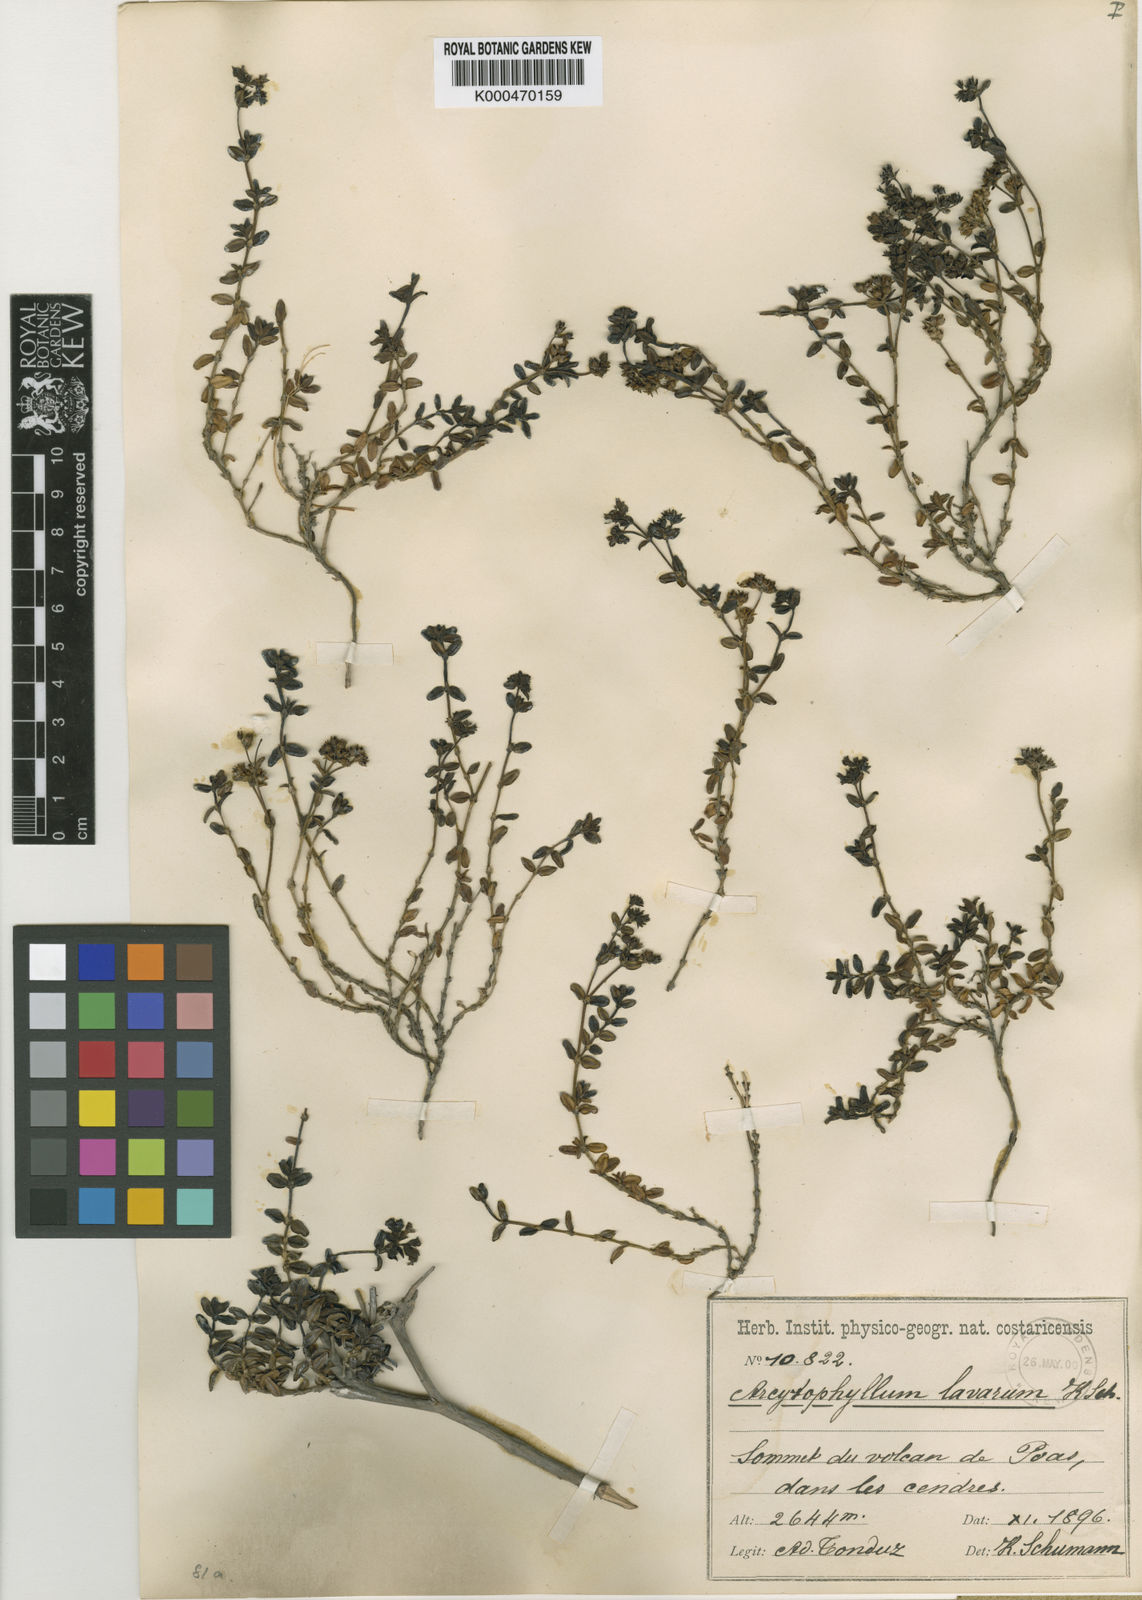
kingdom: Plantae
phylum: Tracheophyta
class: Magnoliopsida
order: Gentianales
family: Rubiaceae
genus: Arcytophyllum
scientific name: Arcytophyllum
